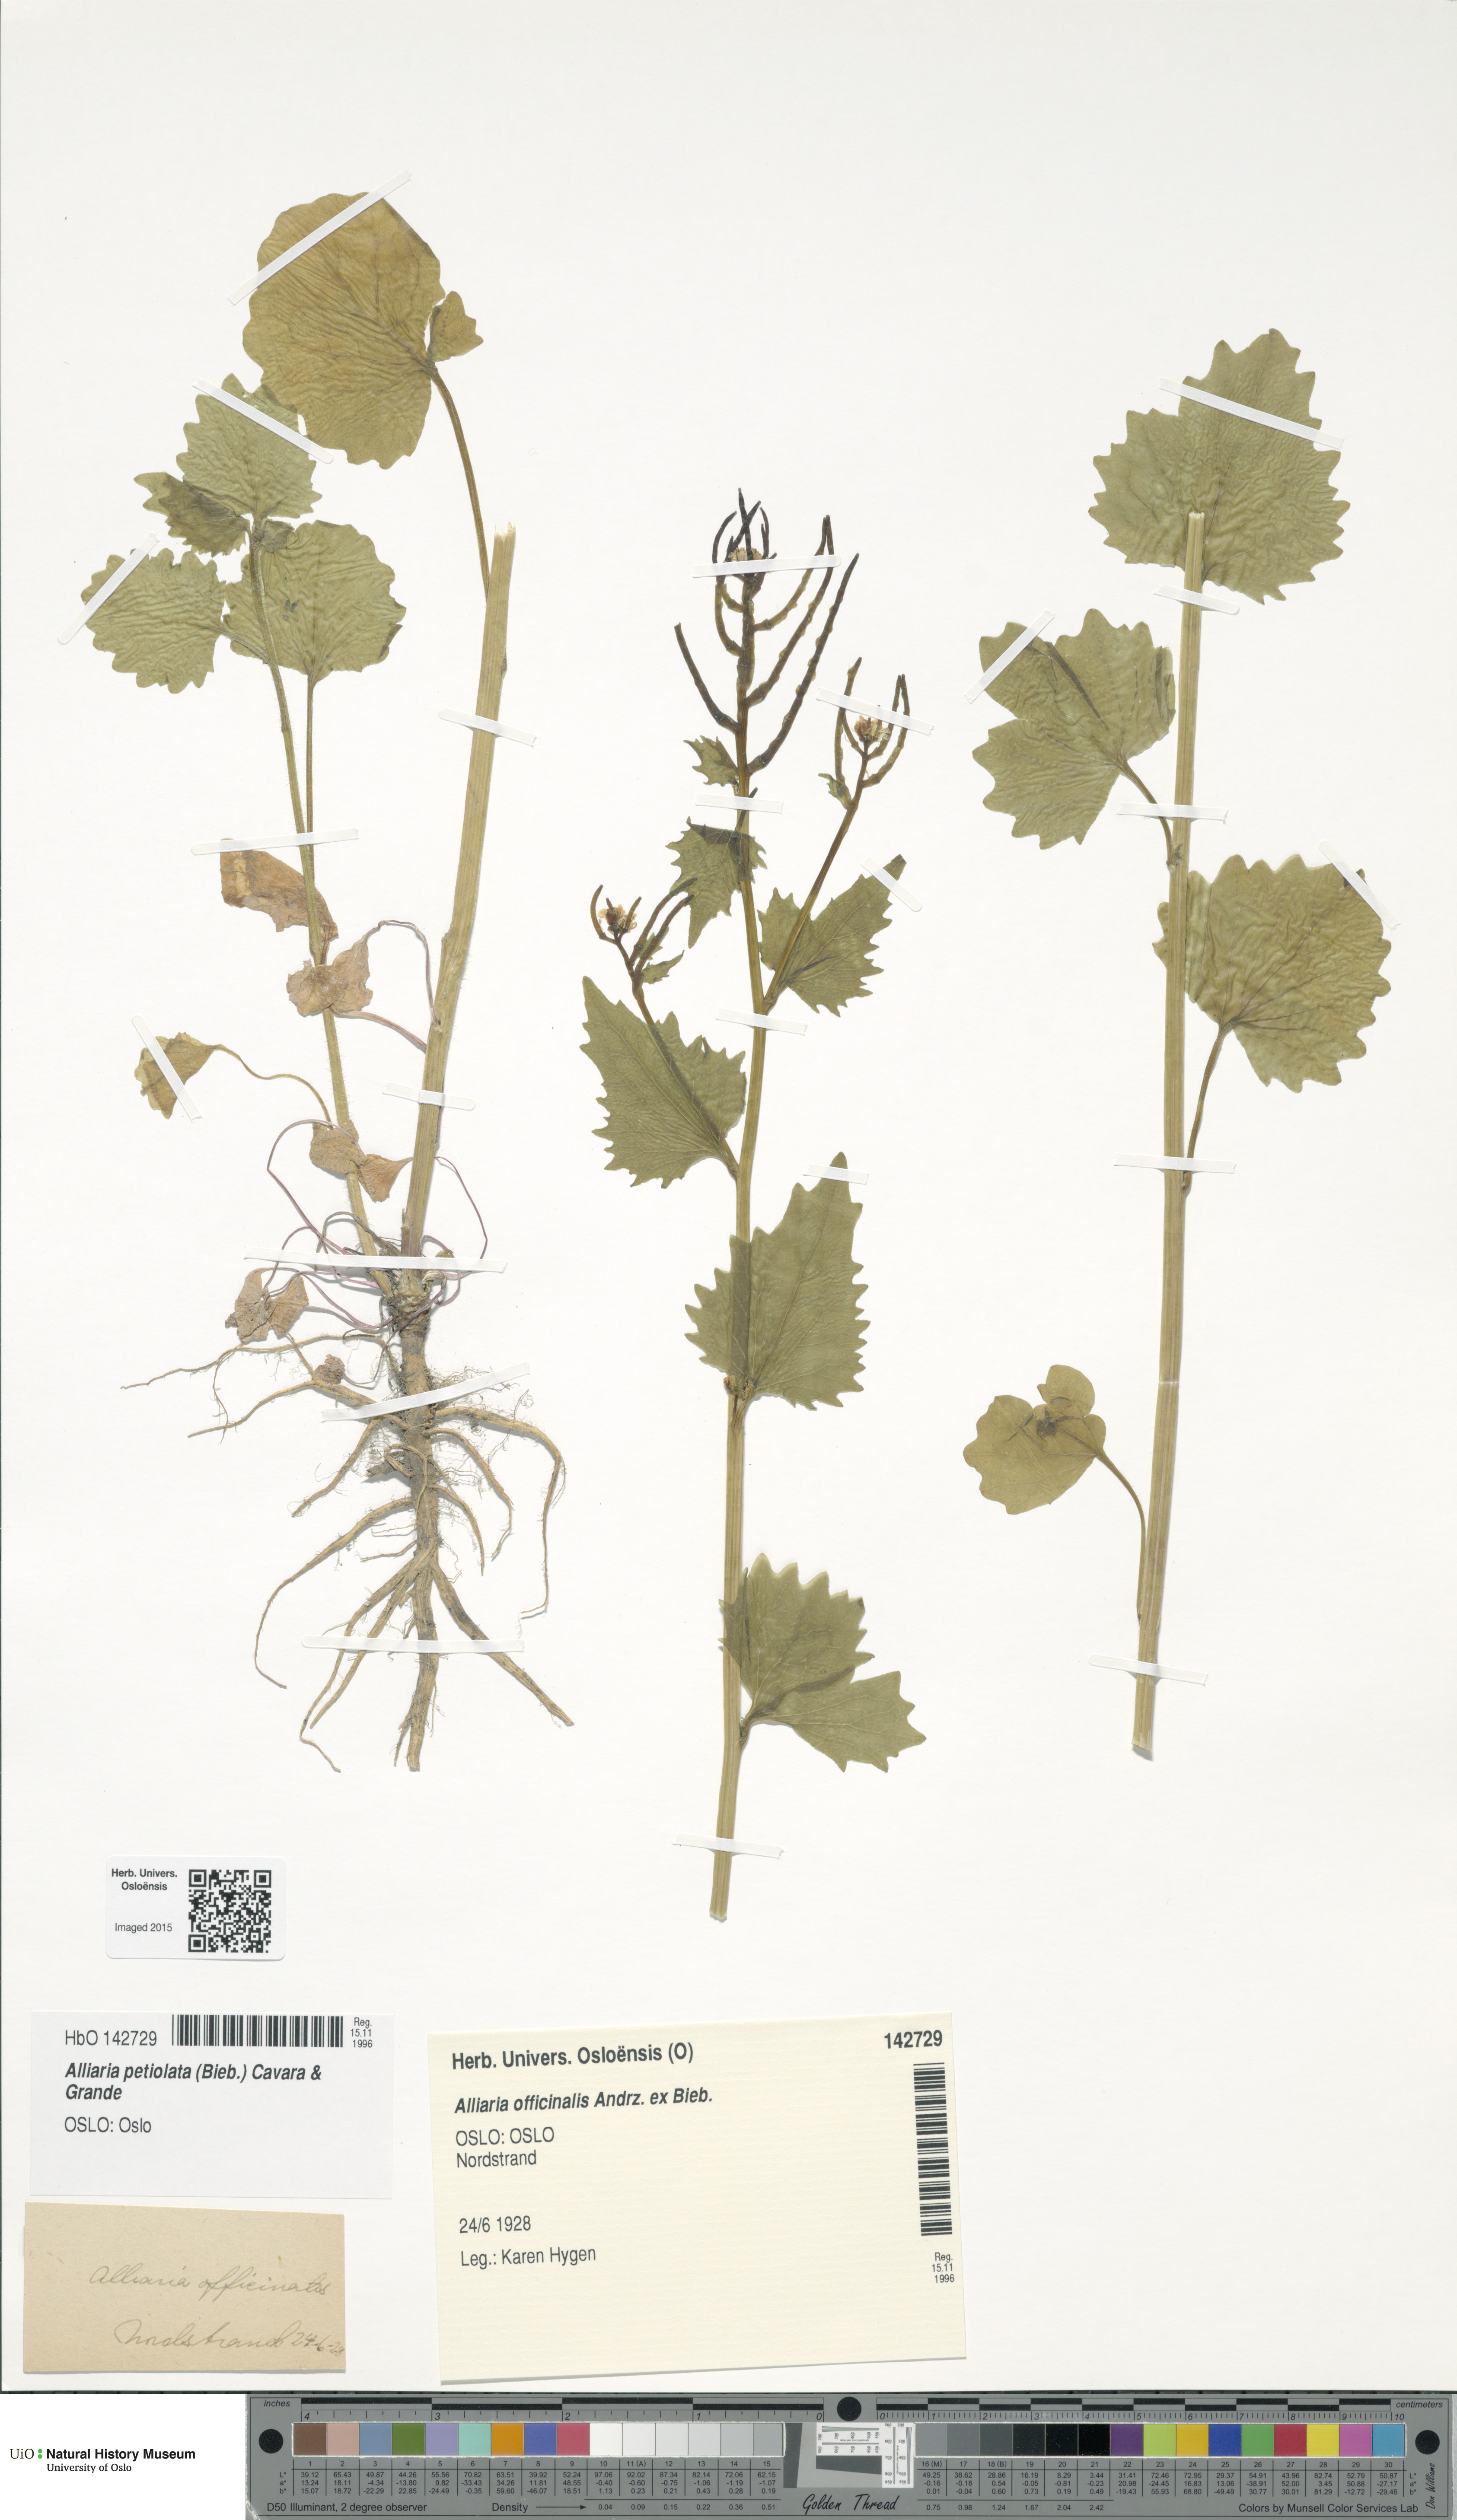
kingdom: Plantae
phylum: Tracheophyta
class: Magnoliopsida
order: Brassicales
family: Brassicaceae
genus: Alliaria
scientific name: Alliaria petiolata
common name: Garlic mustard
